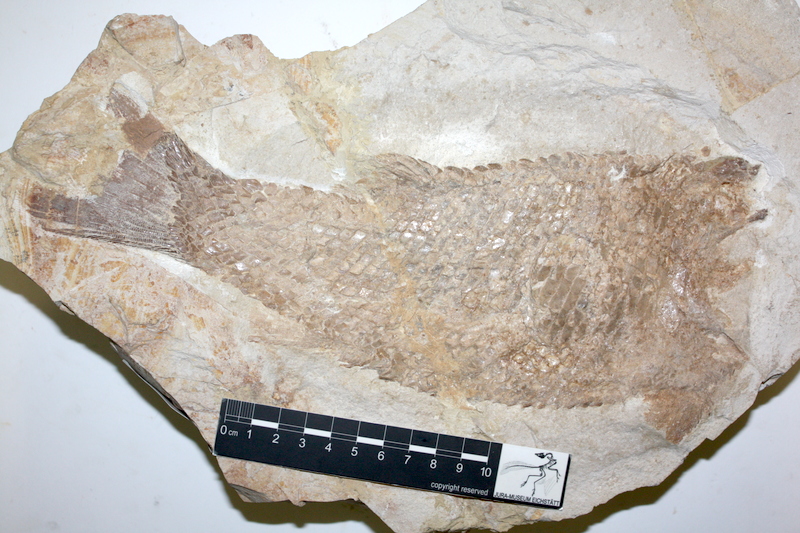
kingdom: Animalia
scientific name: Animalia
